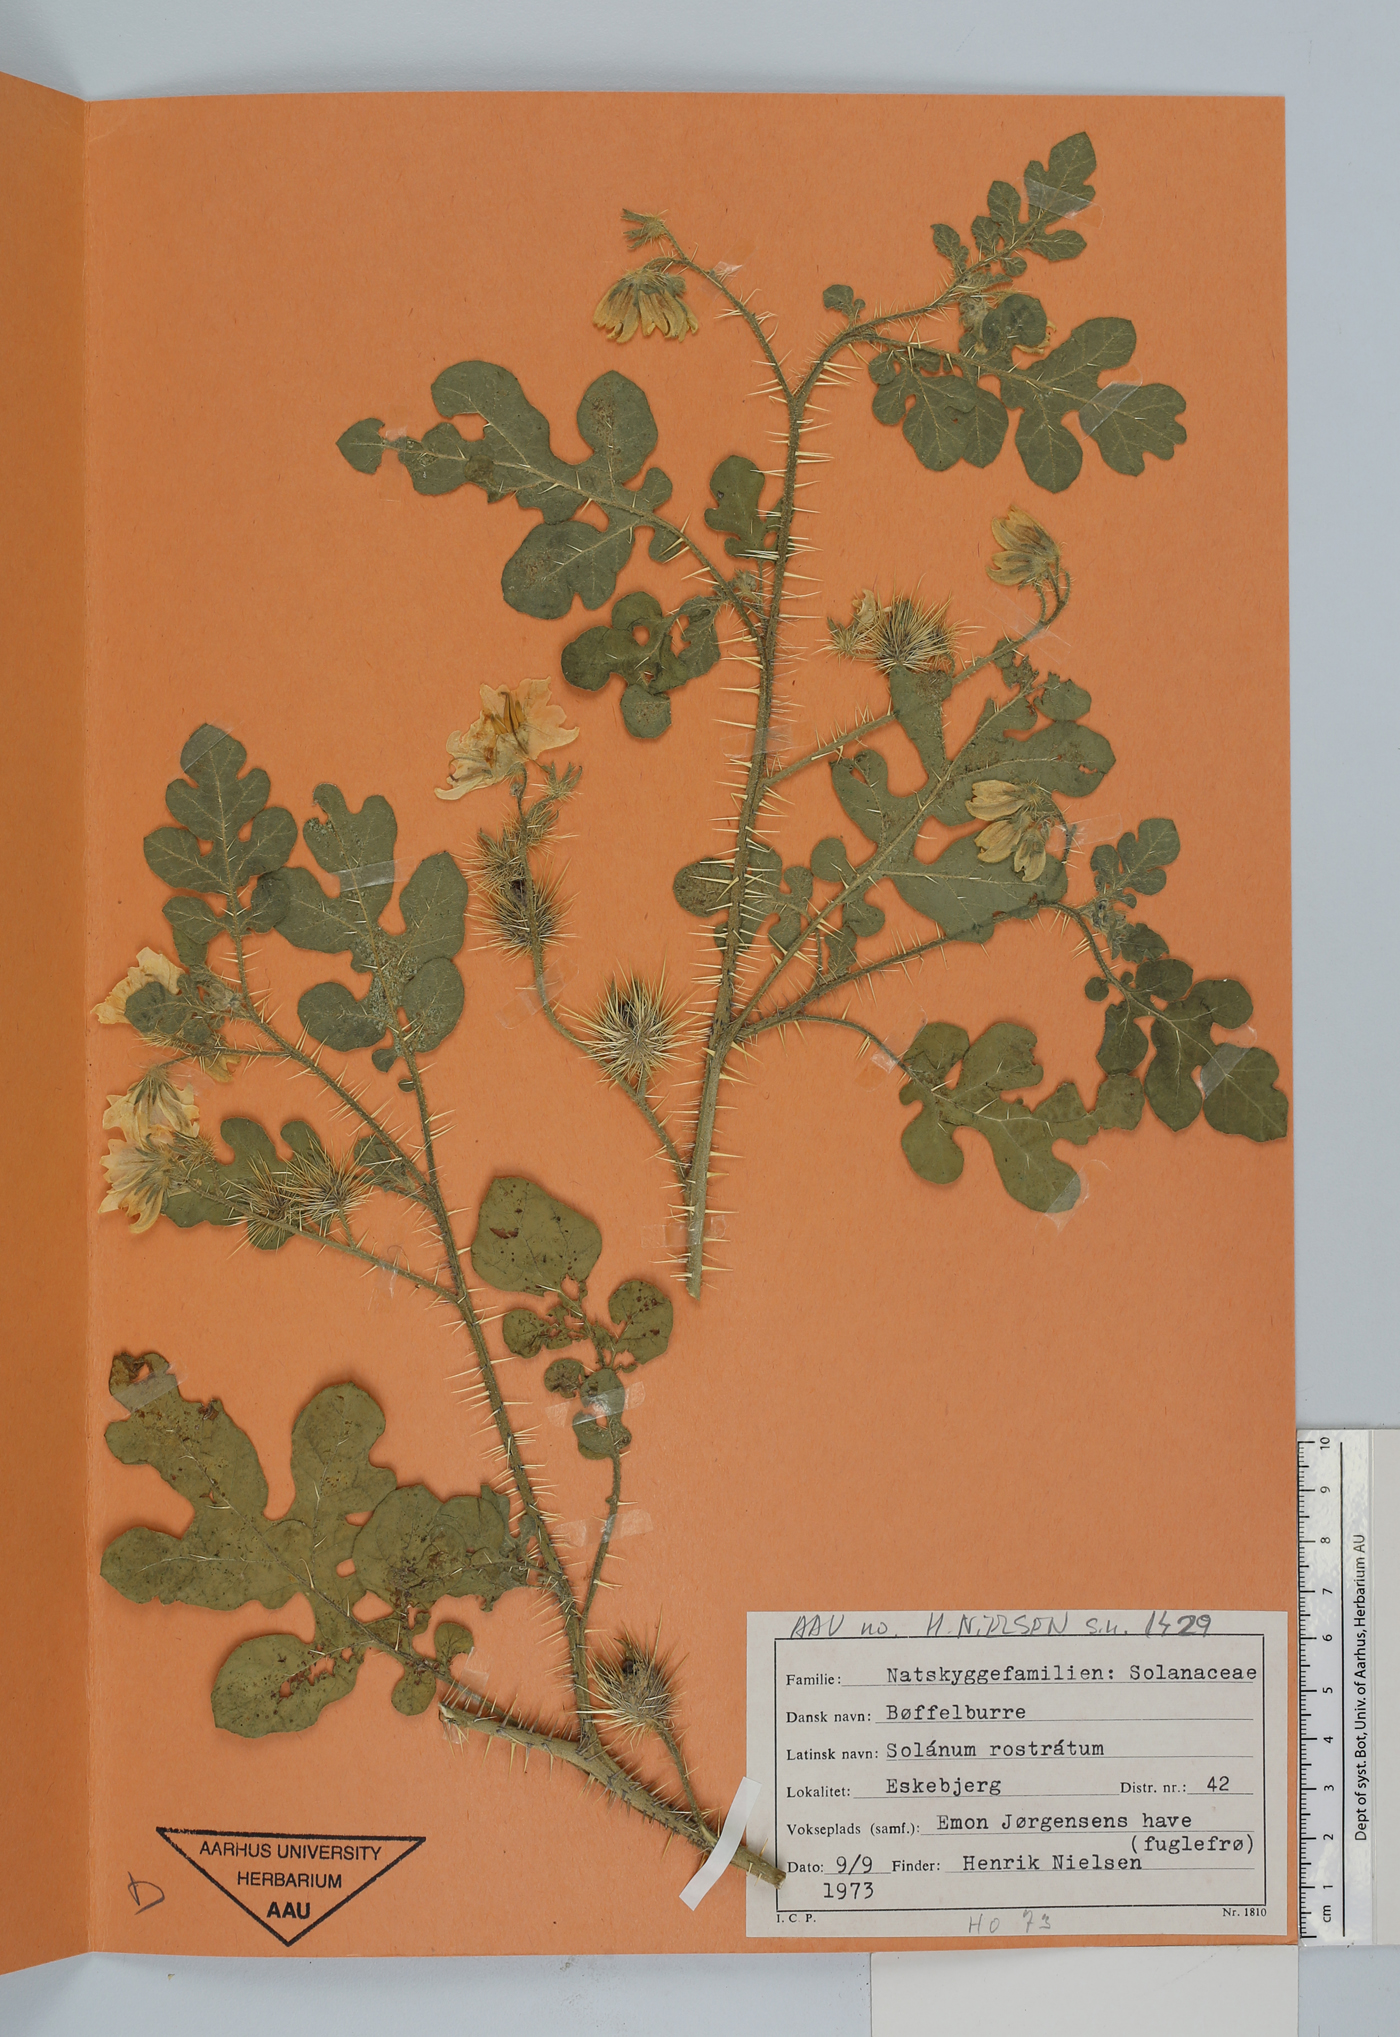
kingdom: Plantae
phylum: Tracheophyta
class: Magnoliopsida
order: Solanales
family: Solanaceae
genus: Solanum
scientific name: Solanum angustifolium
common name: Buffalobur nightshade
